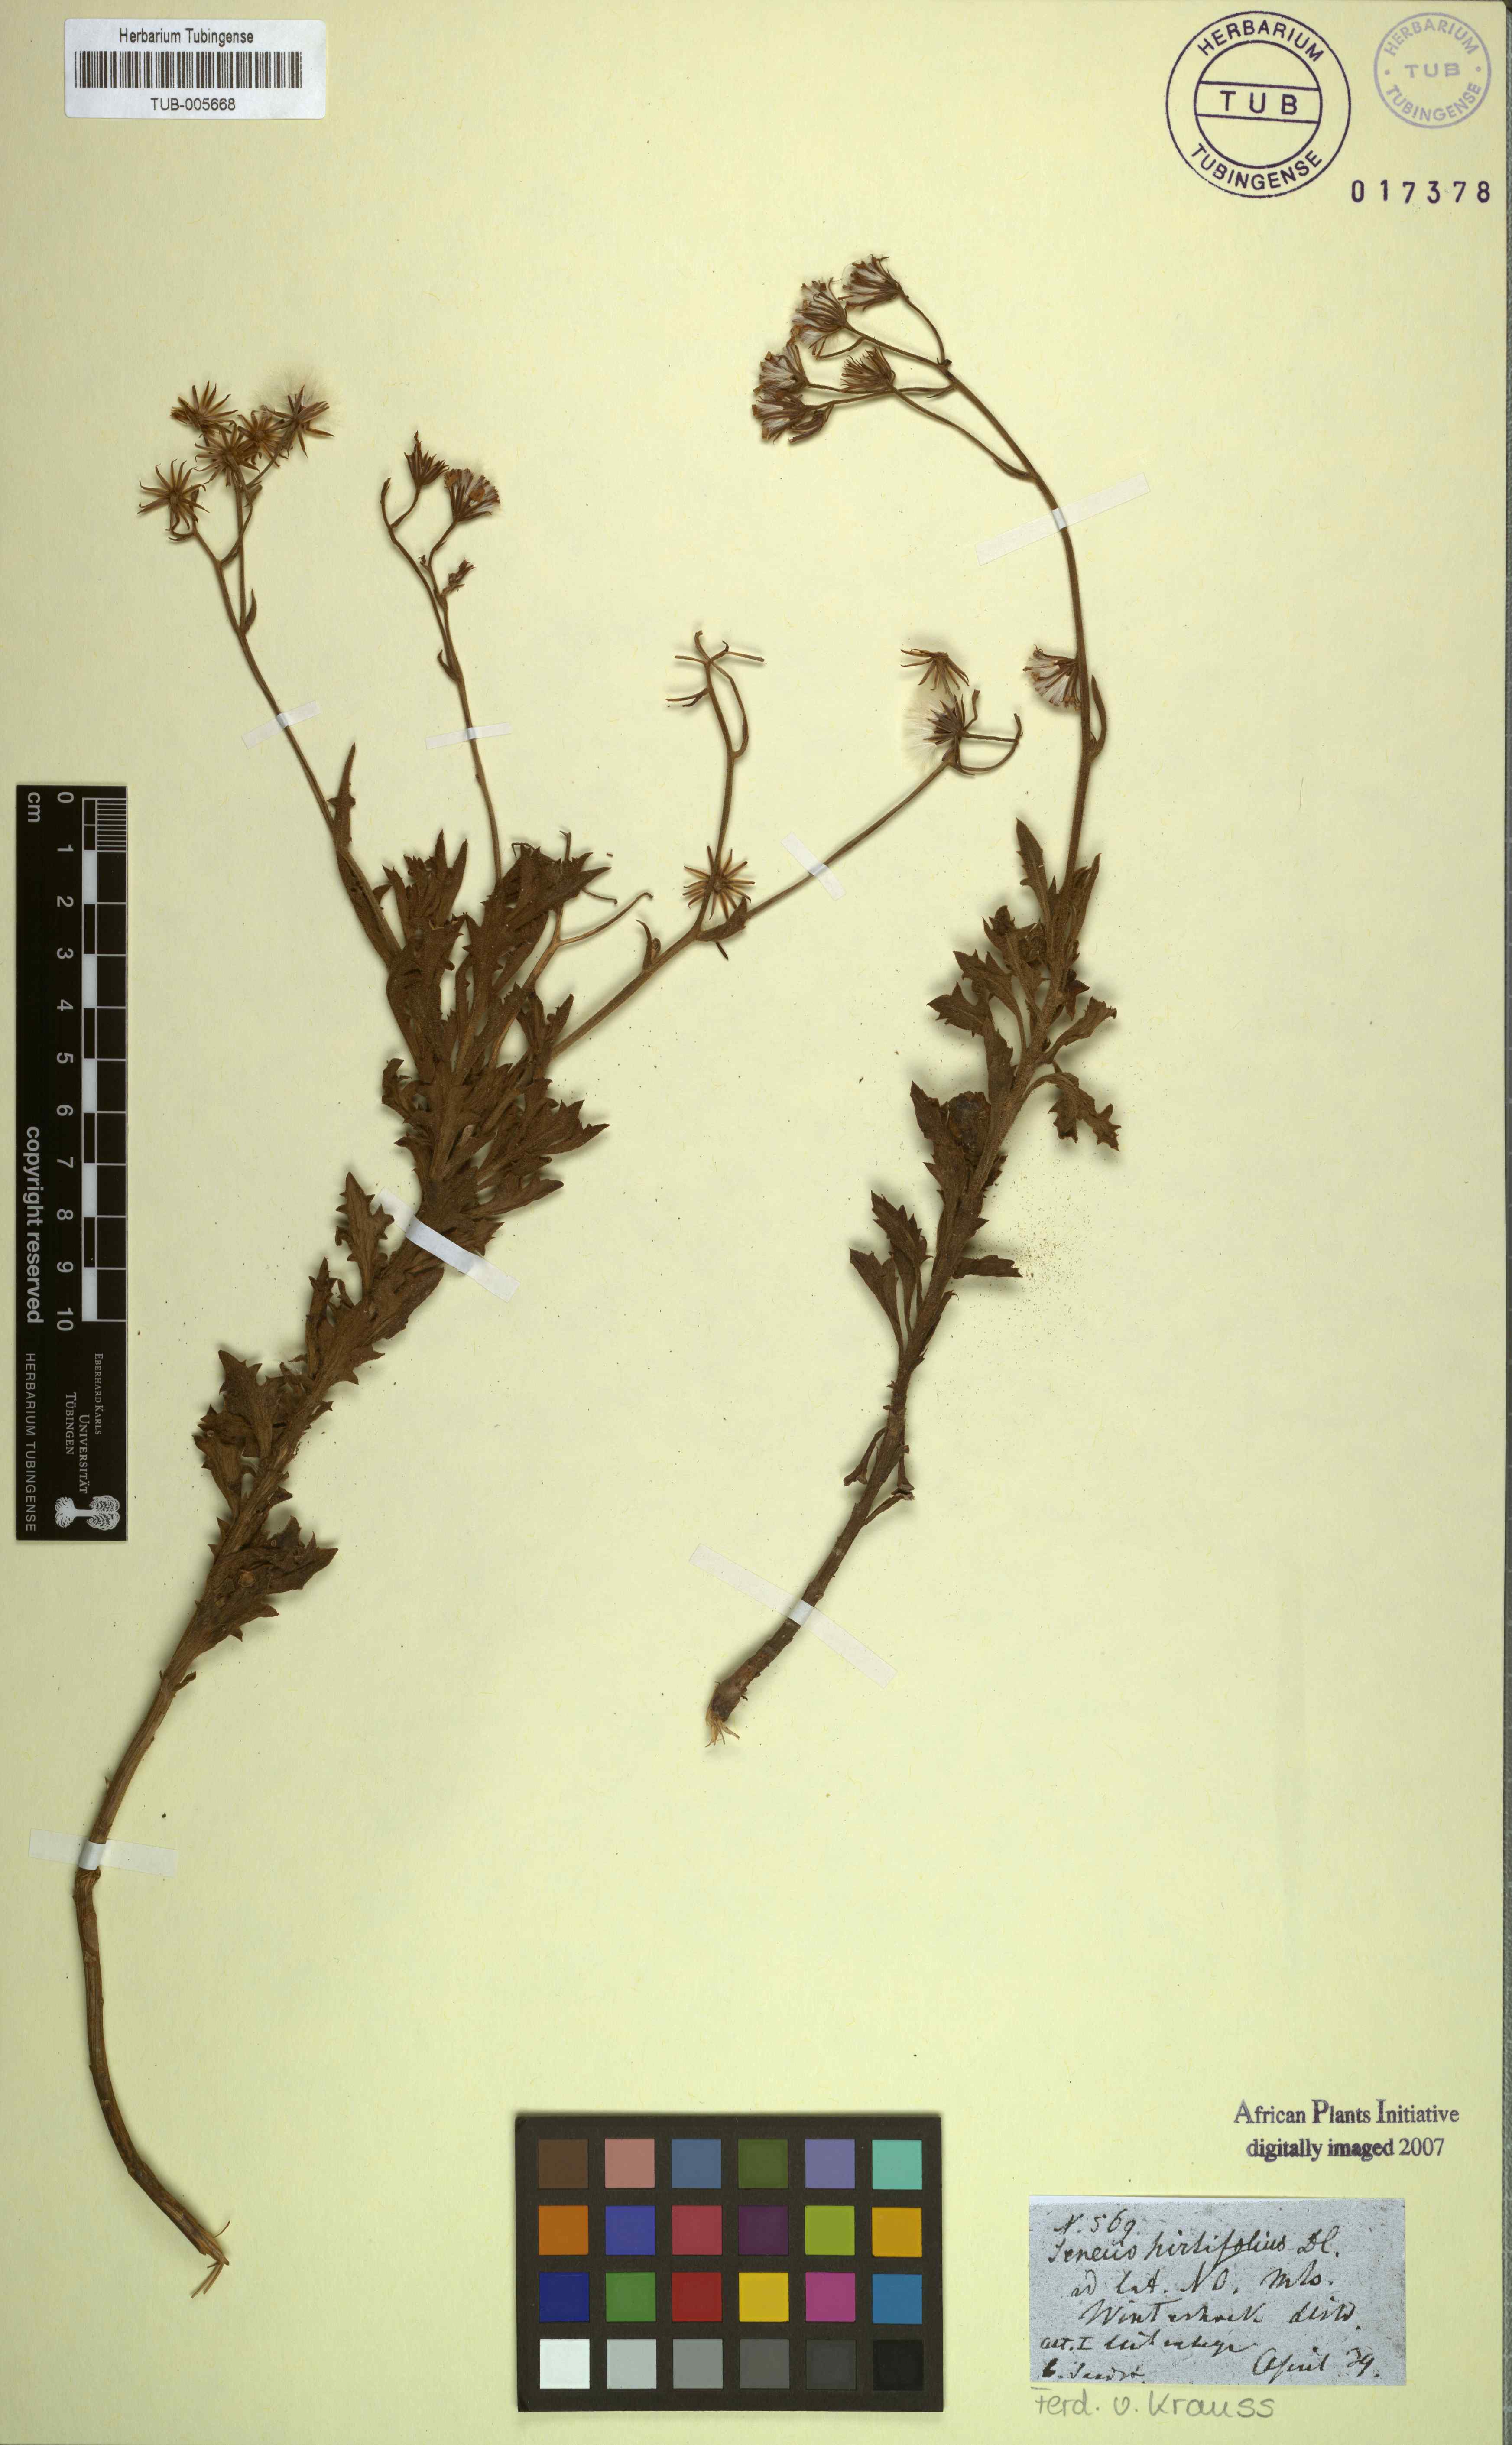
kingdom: Plantae
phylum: Tracheophyta
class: Magnoliopsida
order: Asterales
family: Asteraceae
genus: Senecio
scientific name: Senecio hirtifolius
